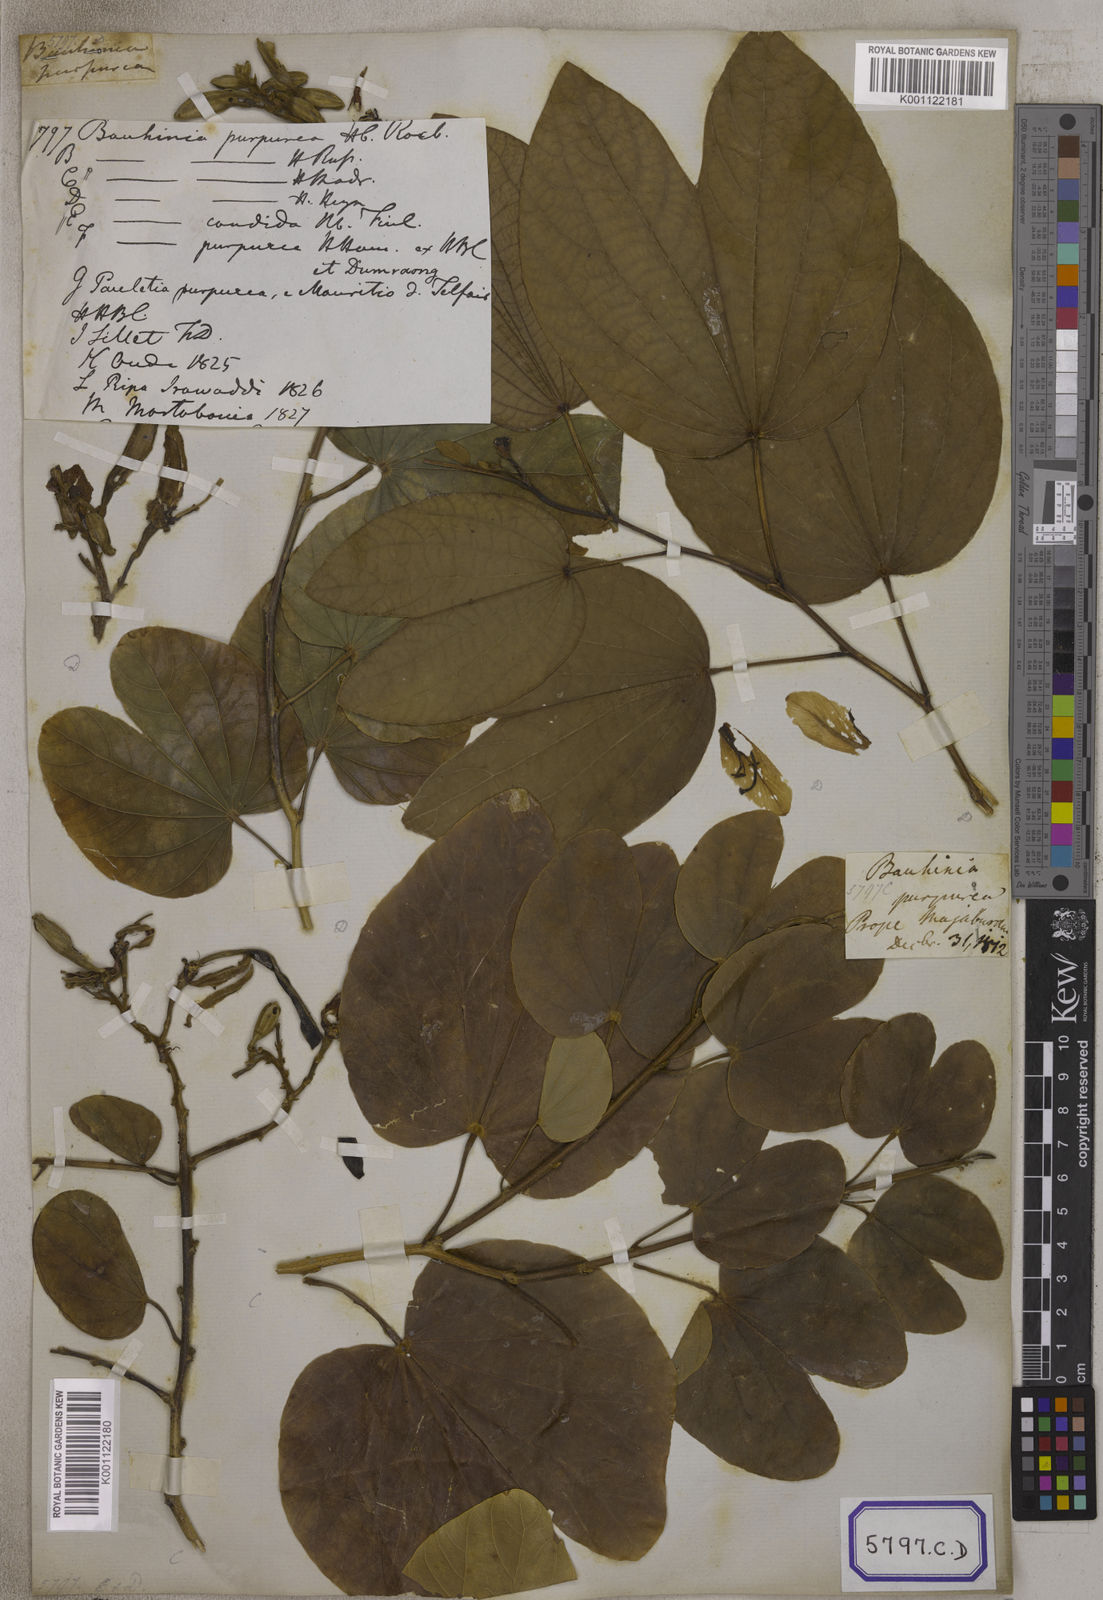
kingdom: Plantae
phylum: Tracheophyta
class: Magnoliopsida
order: Fabales
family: Fabaceae
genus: Bauhinia
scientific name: Bauhinia
